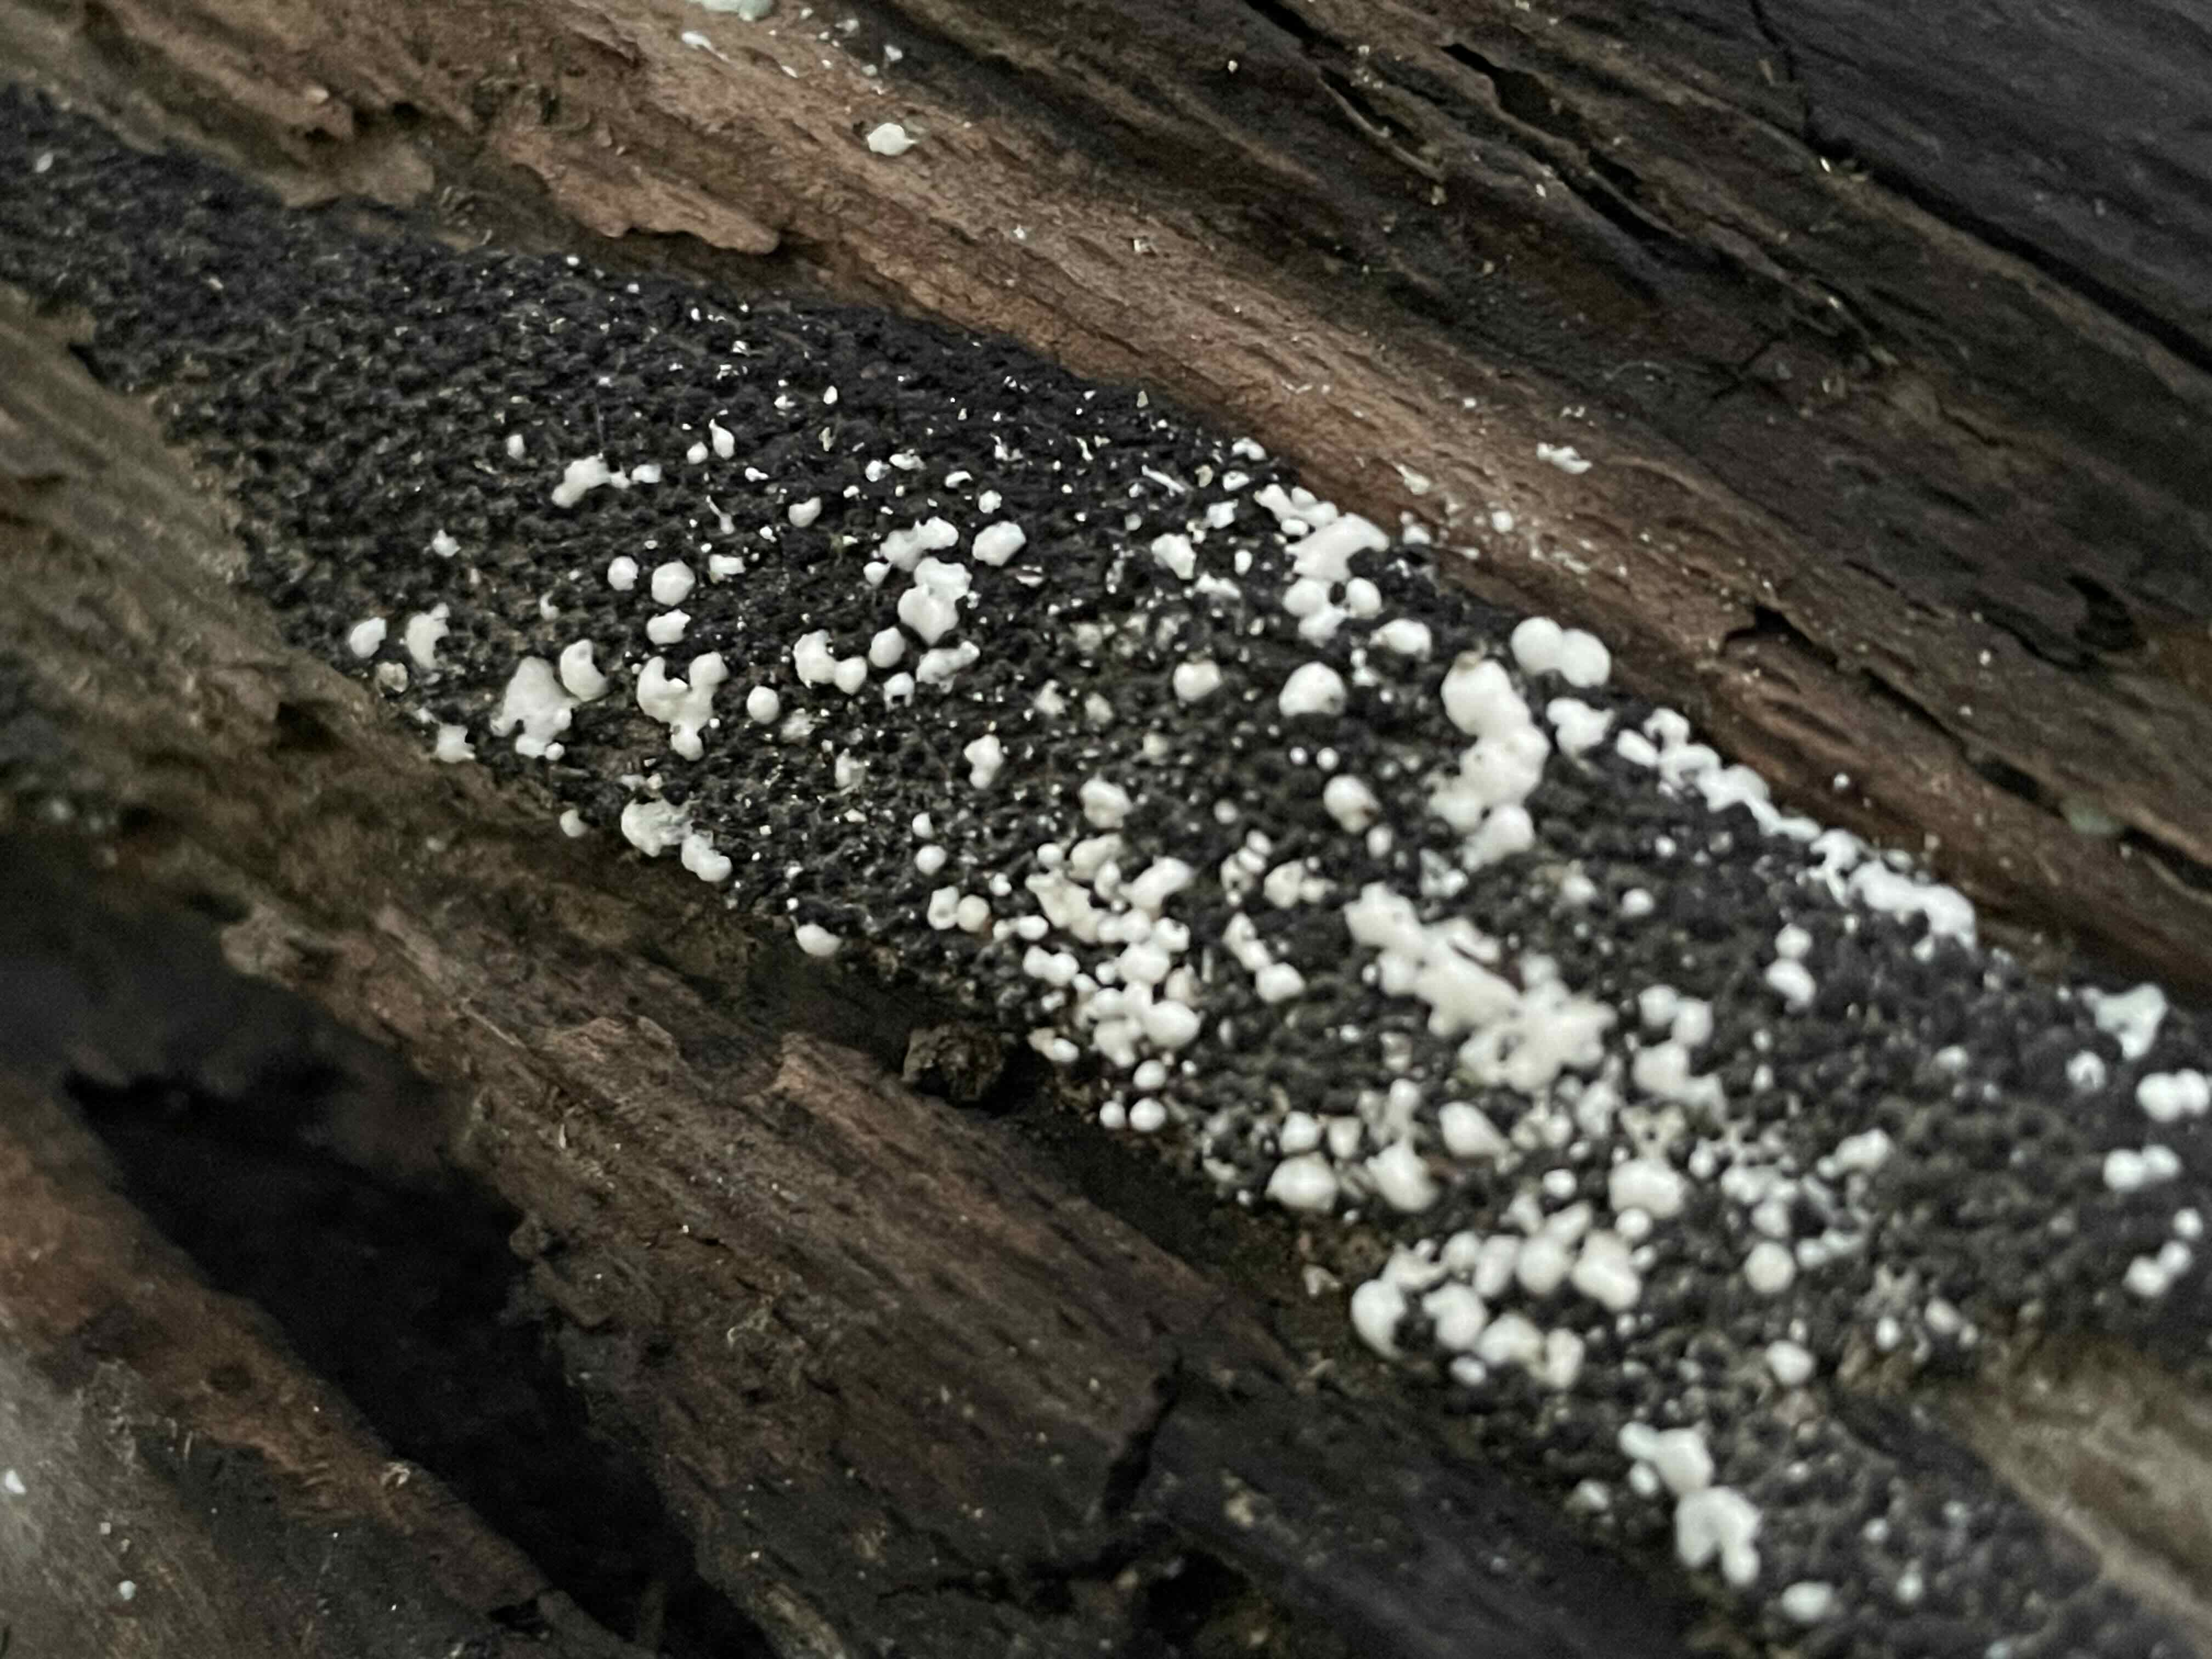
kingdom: Fungi
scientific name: Fungi
